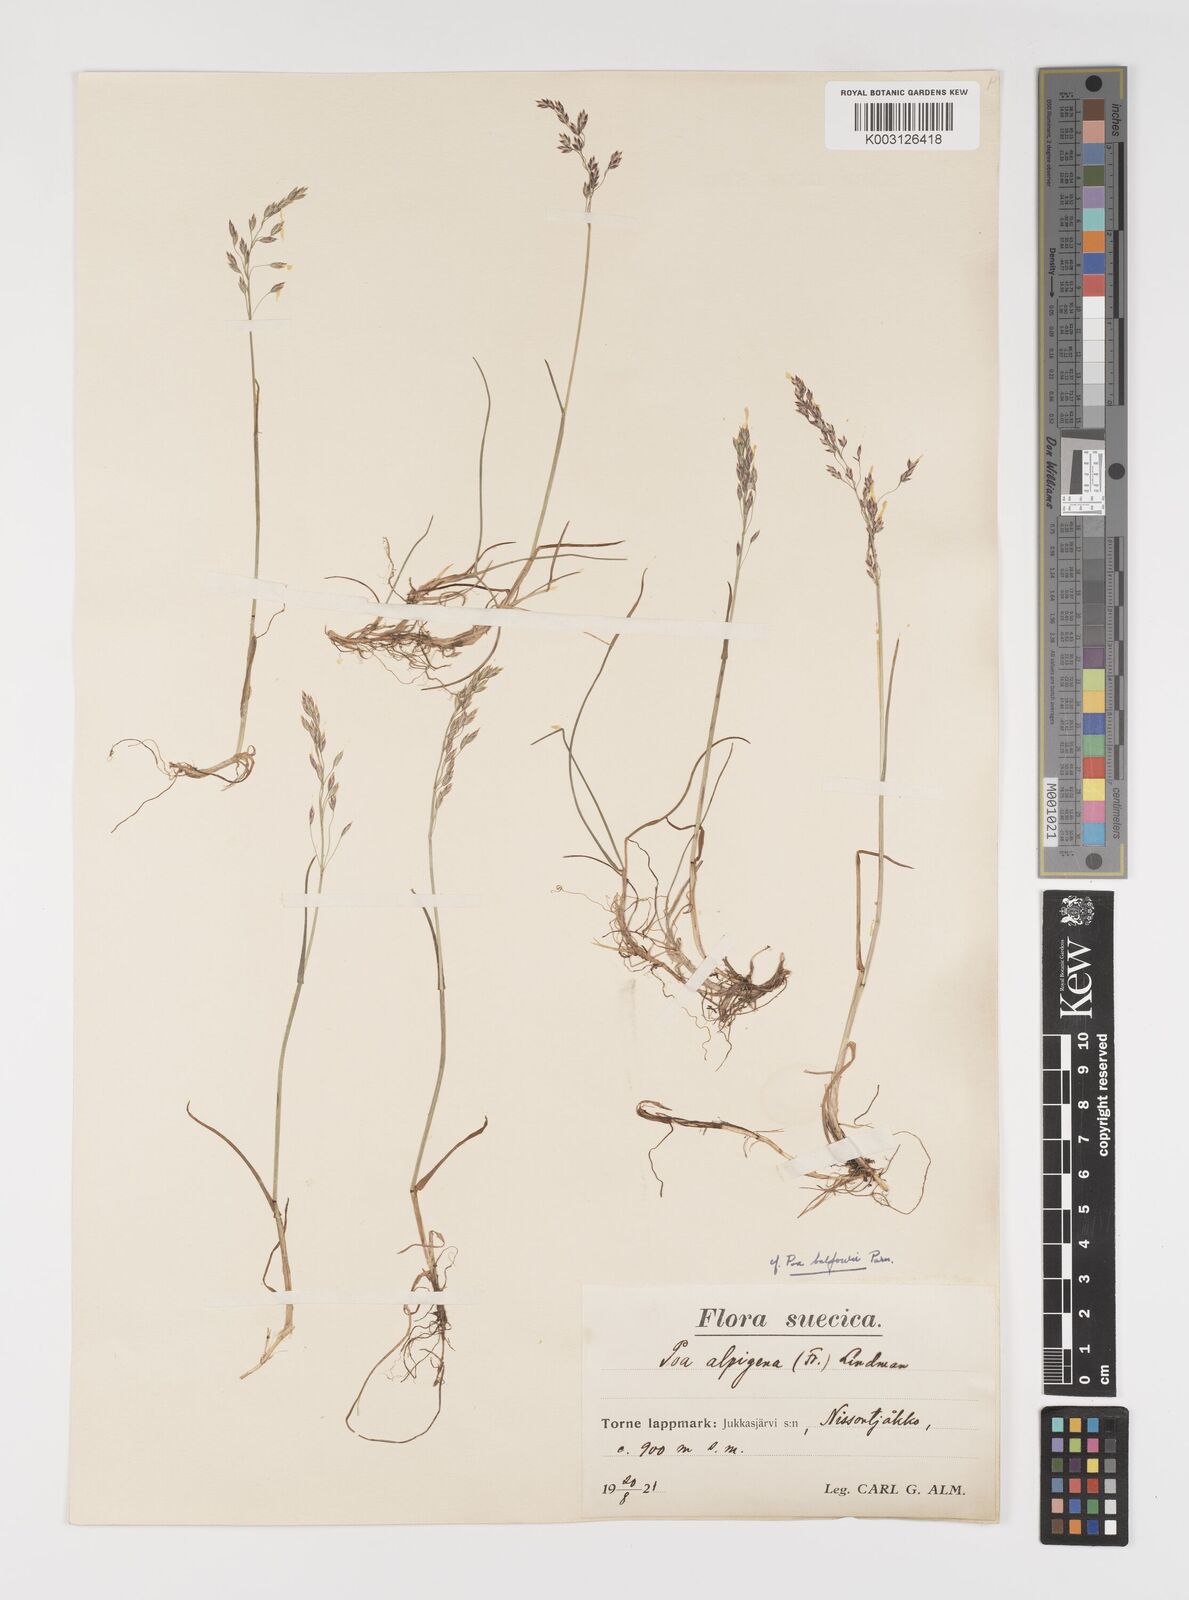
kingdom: Plantae
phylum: Tracheophyta
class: Liliopsida
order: Poales
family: Poaceae
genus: Poa
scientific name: Poa nemoralis
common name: Wood bluegrass
